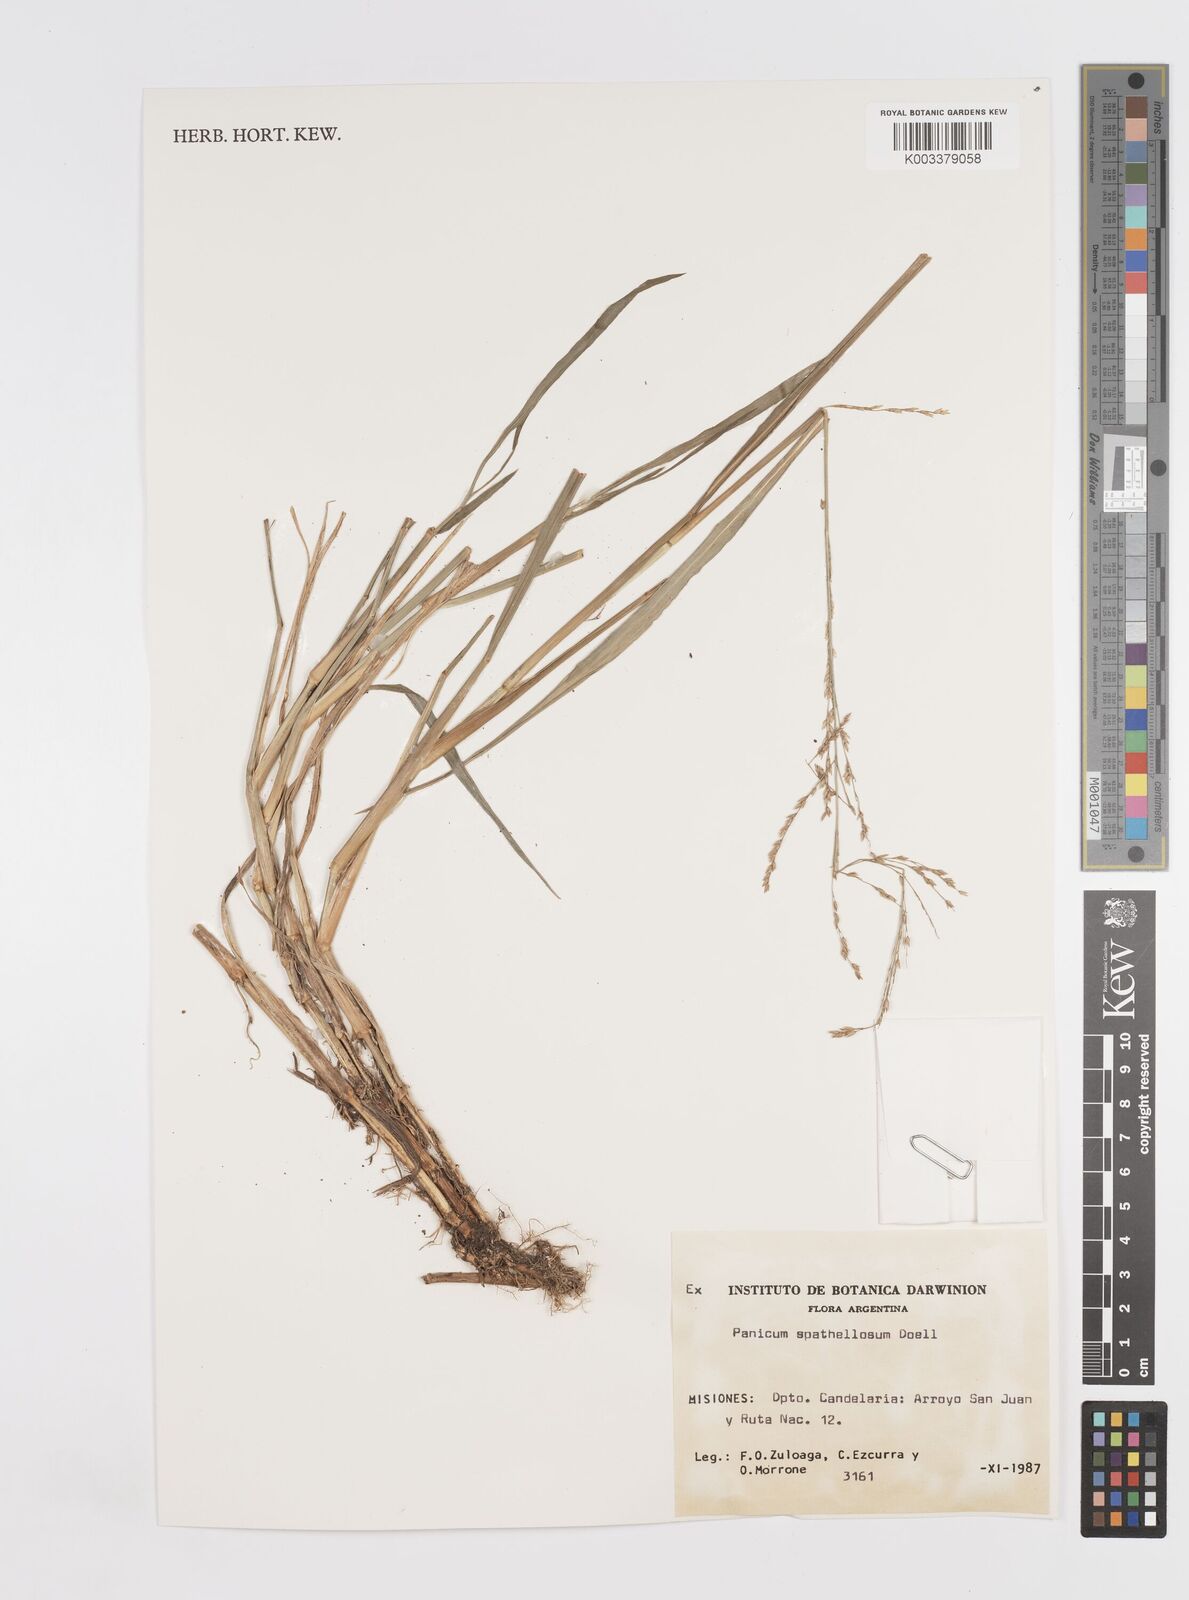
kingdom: Plantae
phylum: Tracheophyta
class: Liliopsida
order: Poales
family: Poaceae
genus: Steinchisma
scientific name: Steinchisma spathellosum
